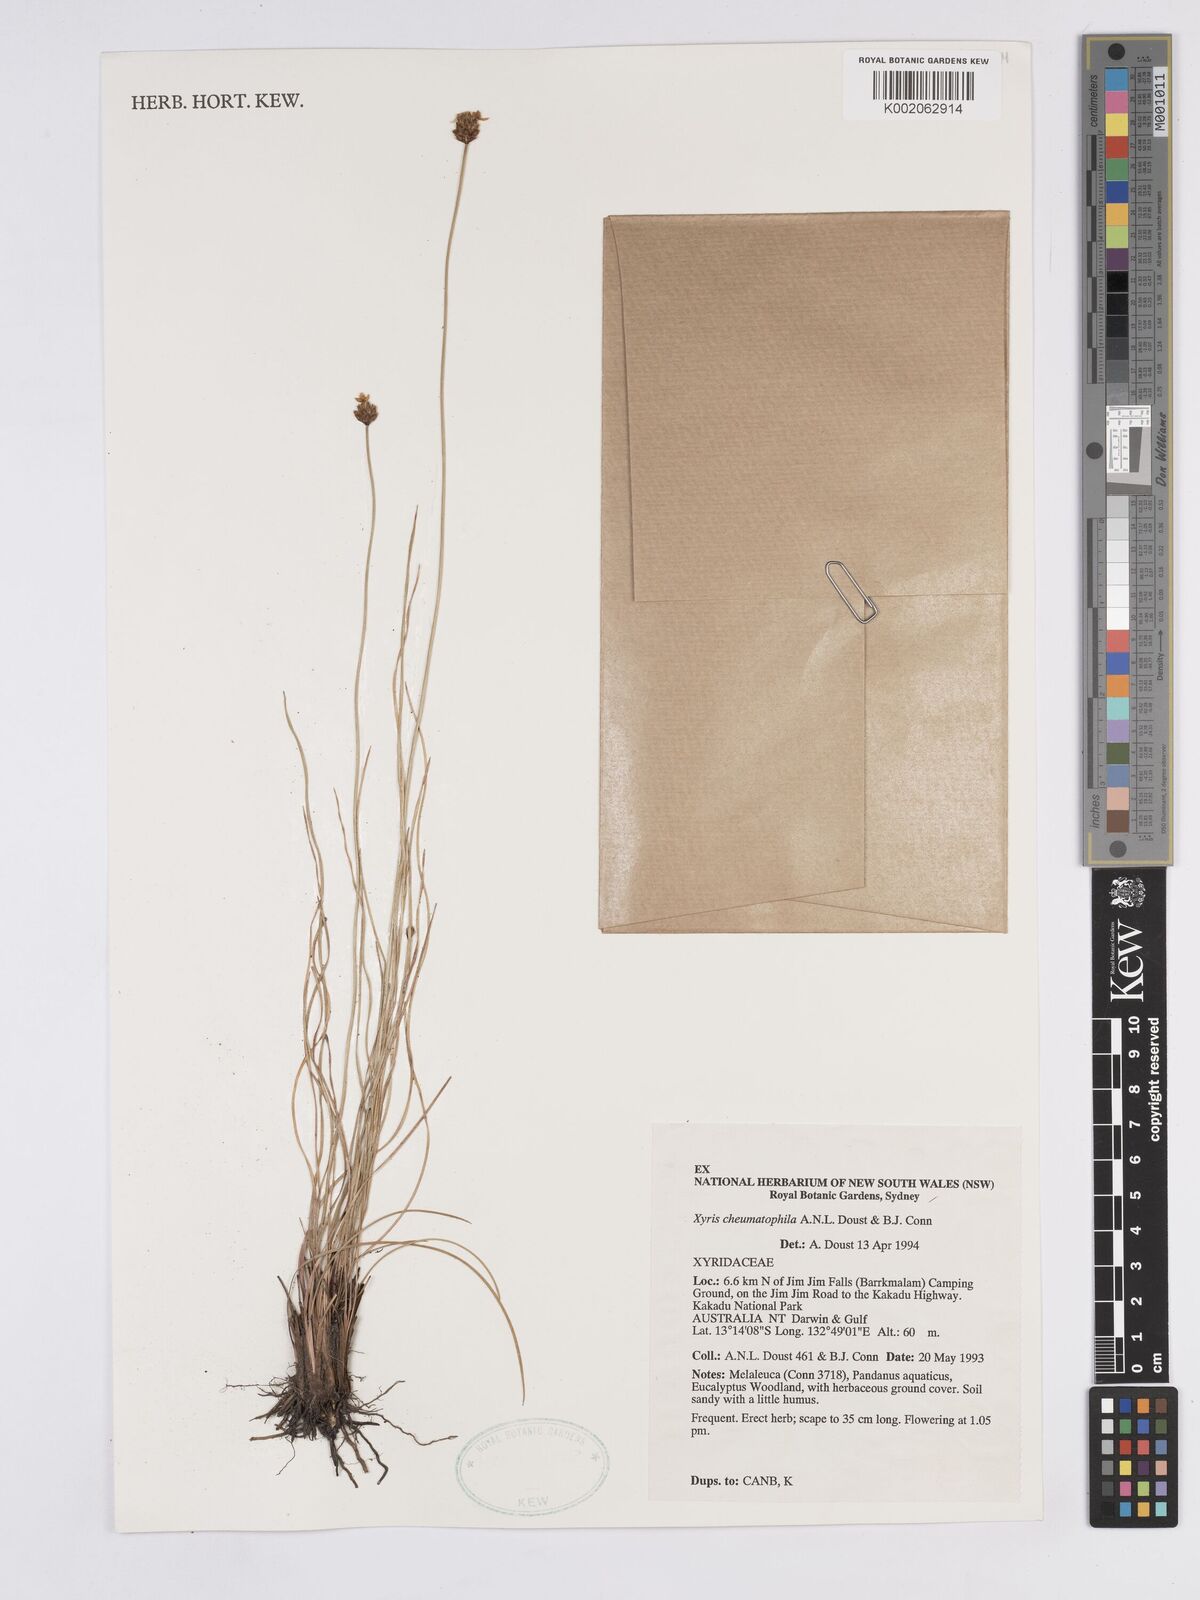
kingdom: Plantae
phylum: Tracheophyta
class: Liliopsida
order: Poales
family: Xyridaceae
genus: Xyris
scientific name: Xyris cheumatophila
